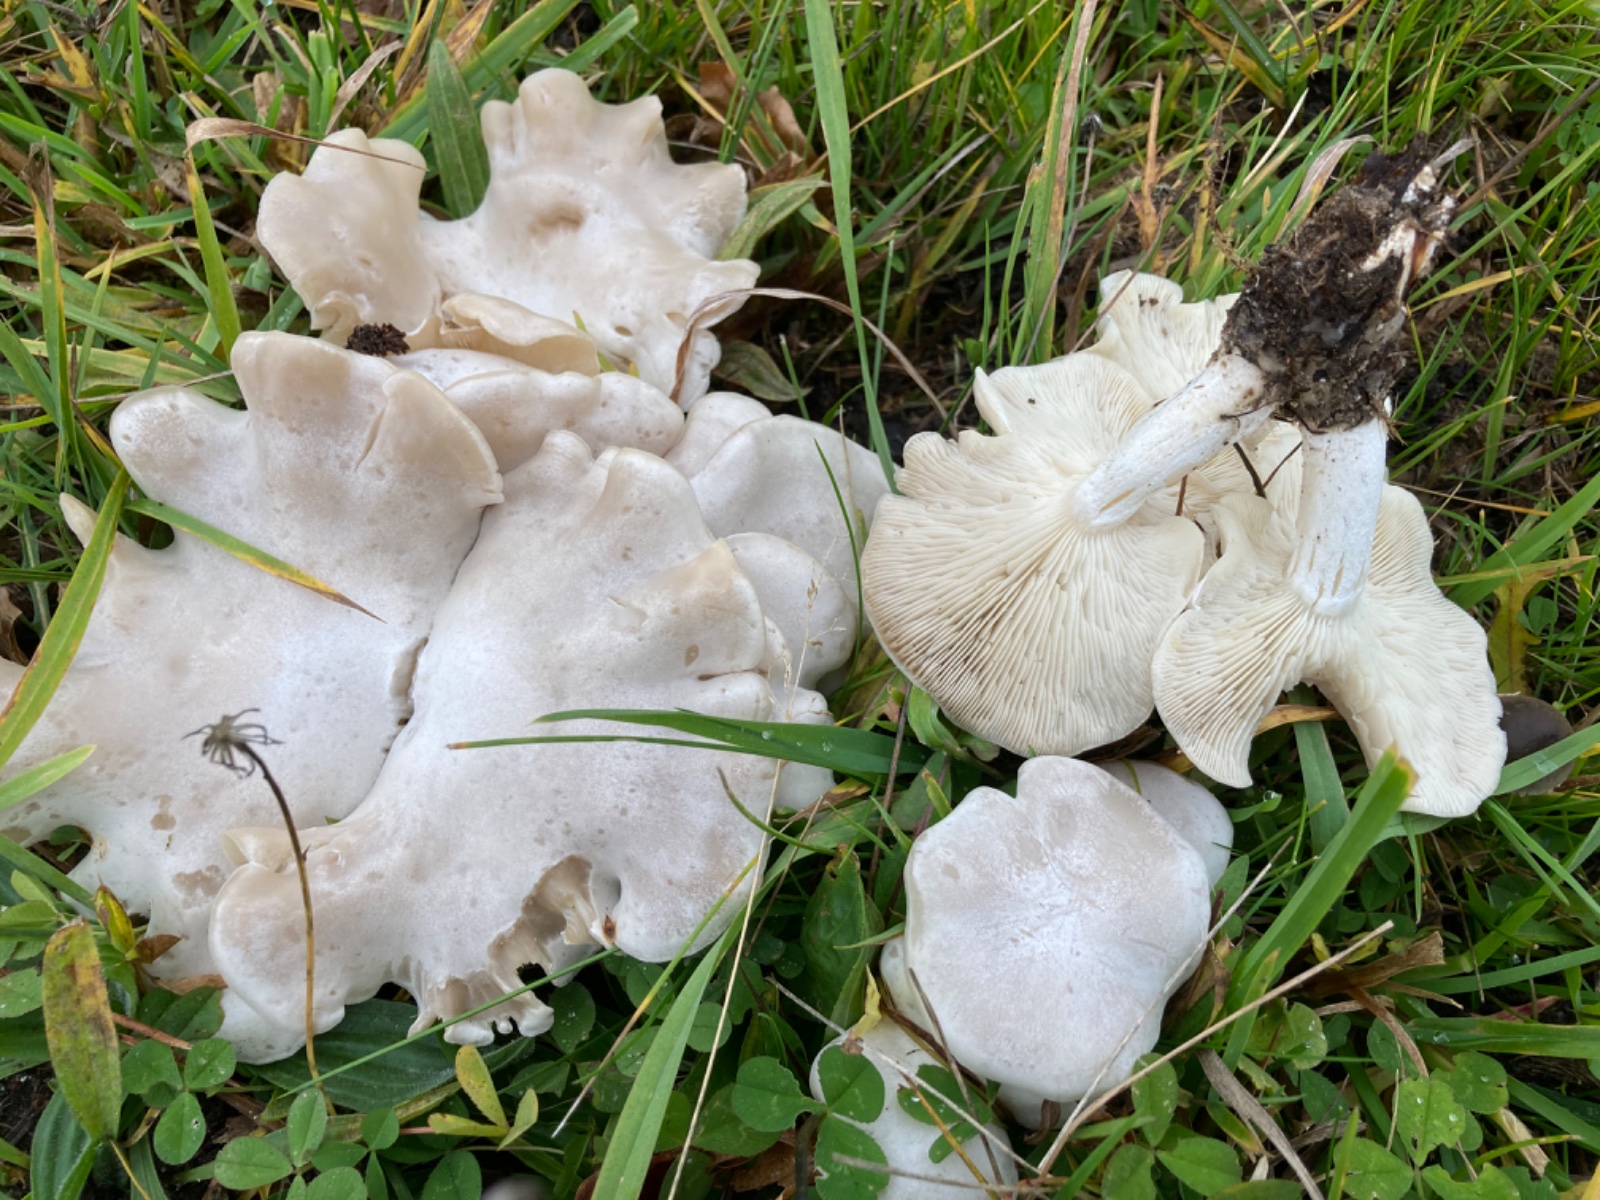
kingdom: Fungi
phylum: Basidiomycota
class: Agaricomycetes
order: Agaricales
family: Tricholomataceae
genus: Leucocybe
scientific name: Leucocybe connata
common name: knippe-tragthat
